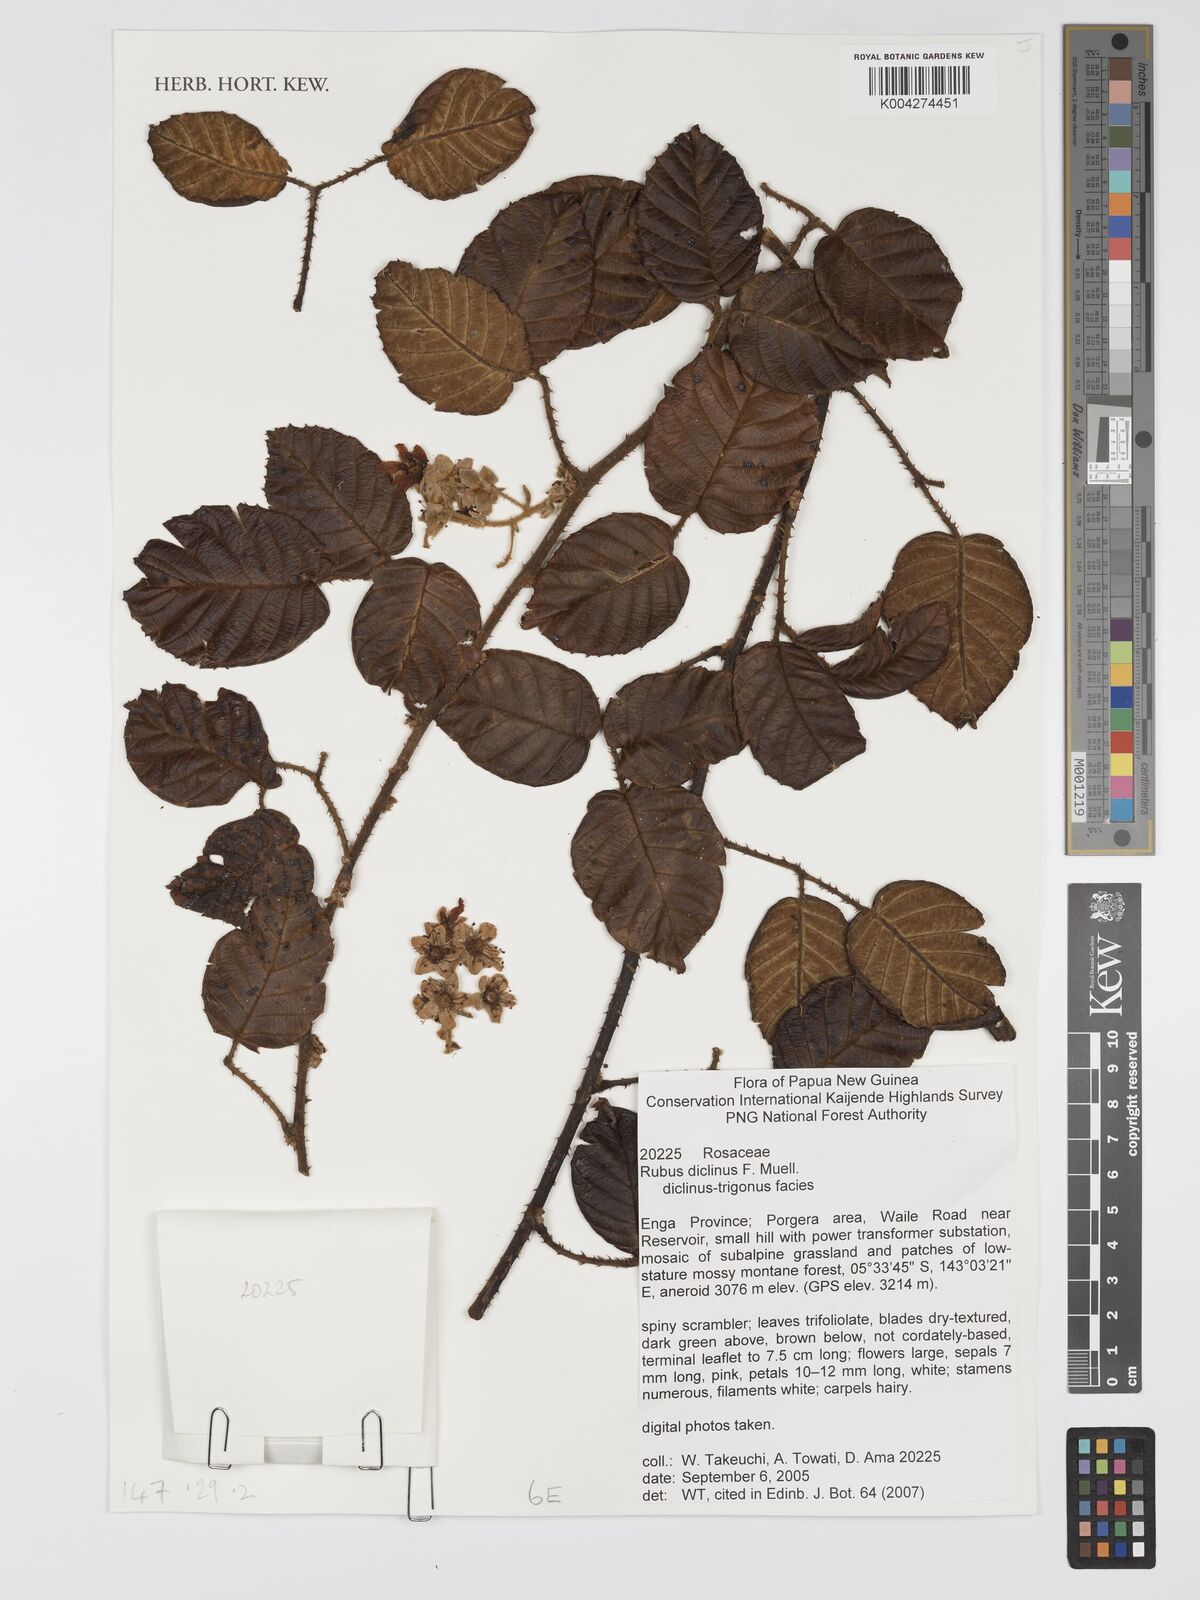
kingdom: Plantae
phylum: Tracheophyta
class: Magnoliopsida
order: Rosales
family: Rosaceae
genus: Rubus
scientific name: Rubus diclinis
